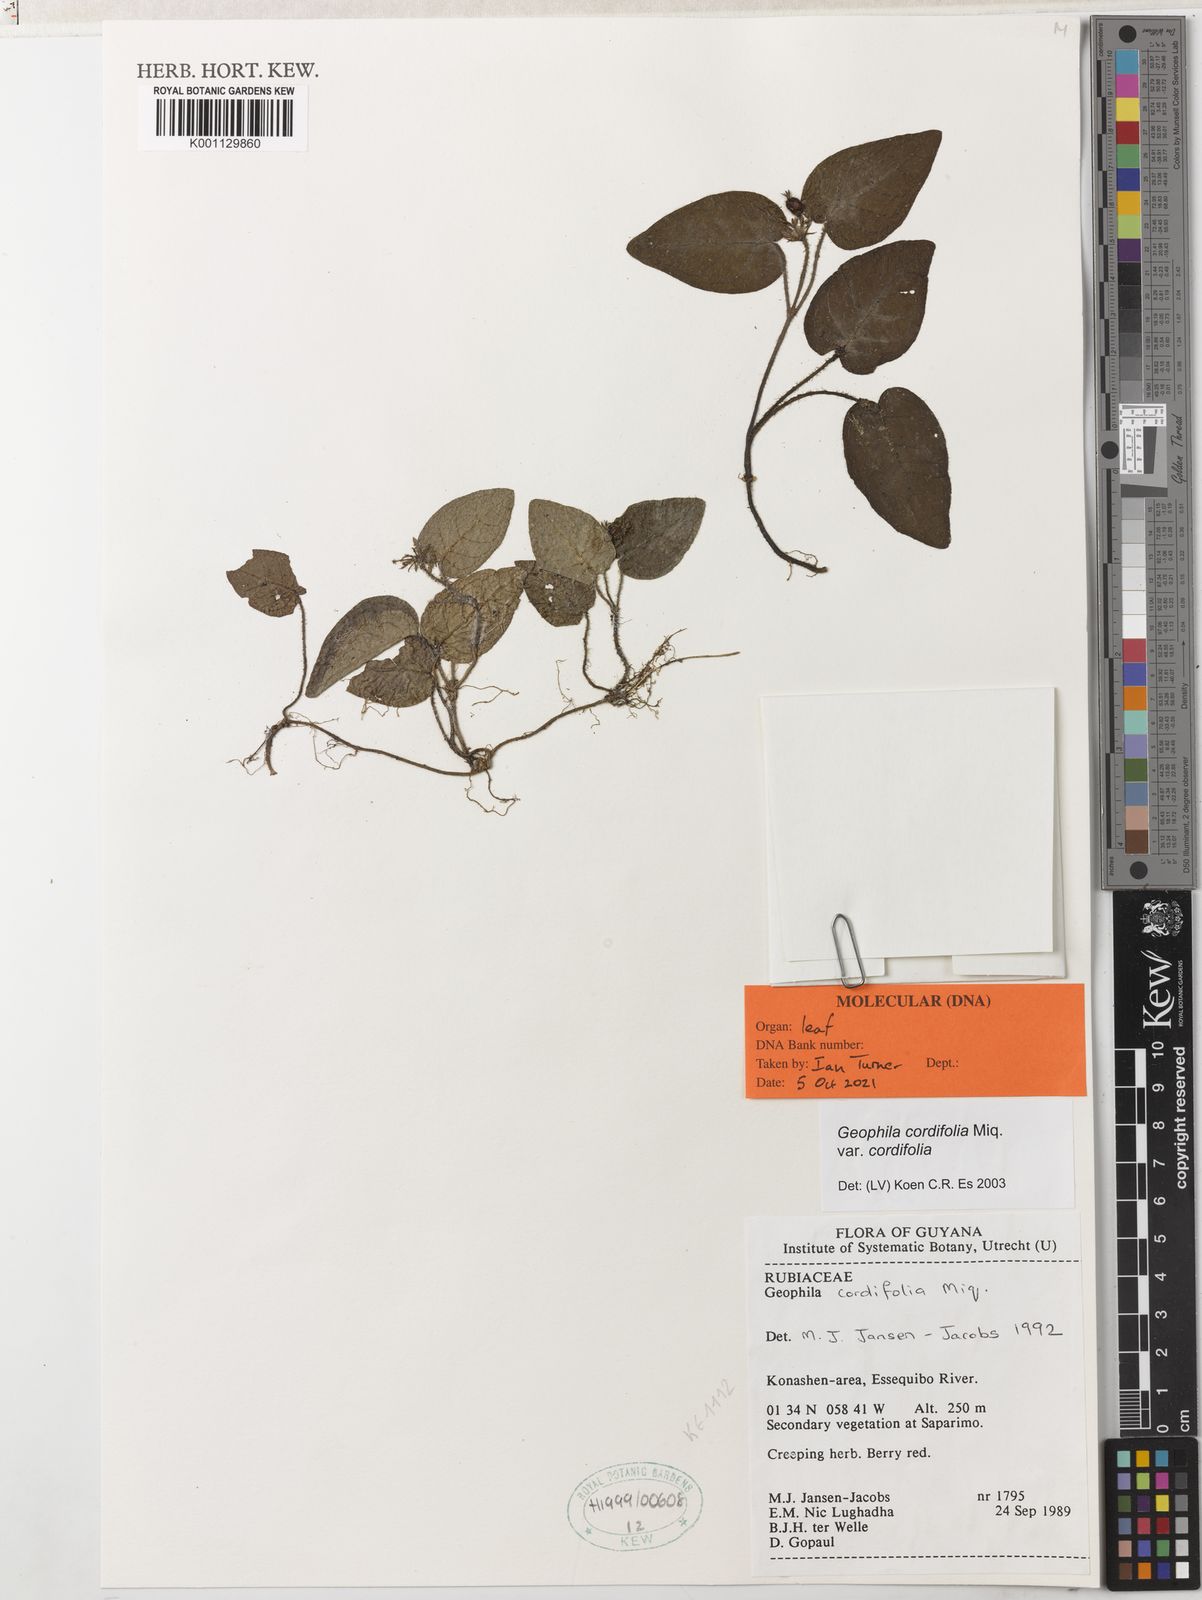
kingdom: Plantae
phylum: Tracheophyta
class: Magnoliopsida
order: Gentianales
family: Rubiaceae
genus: Geophila
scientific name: Geophila cordifolia
